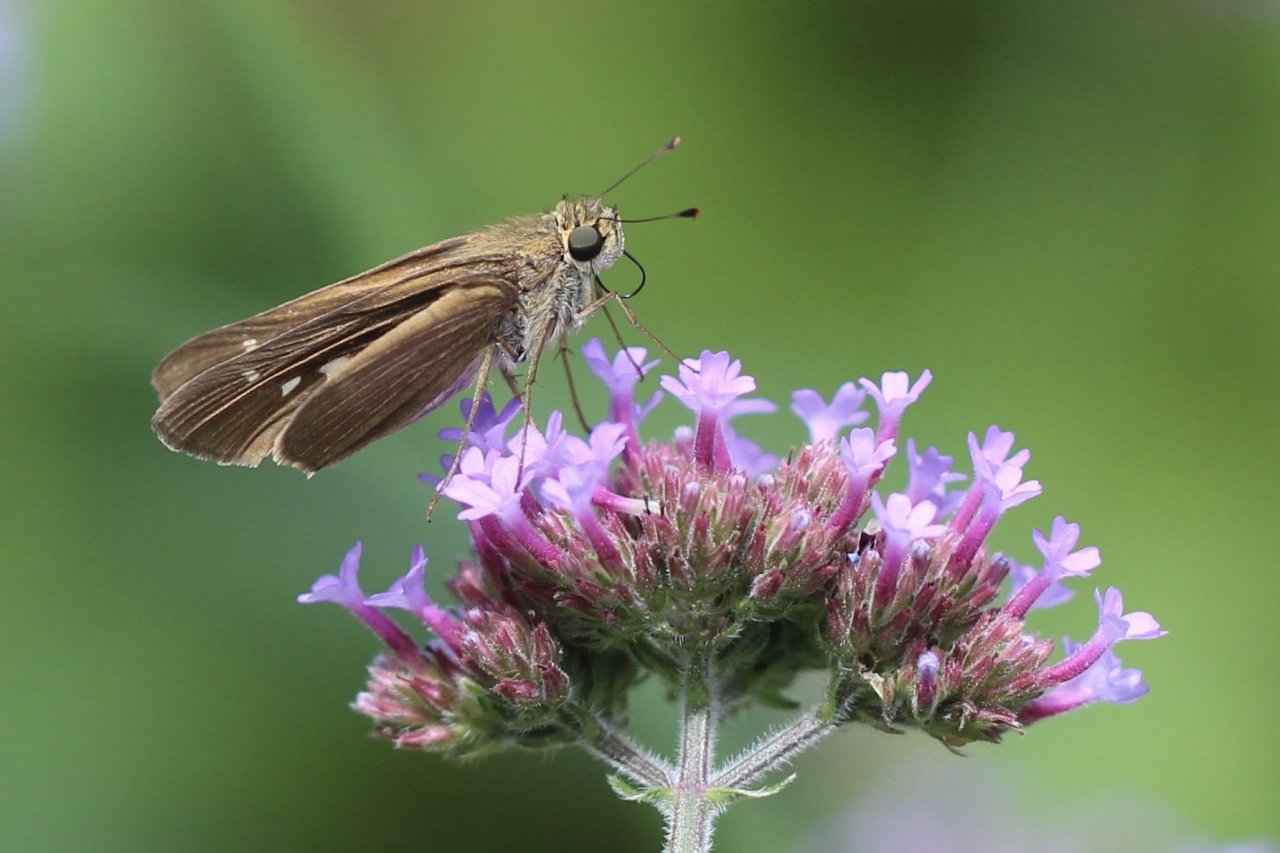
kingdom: Animalia
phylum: Arthropoda
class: Insecta
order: Lepidoptera
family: Hesperiidae
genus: Panoquina
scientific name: Panoquina ocola
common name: Ocola Skipper
